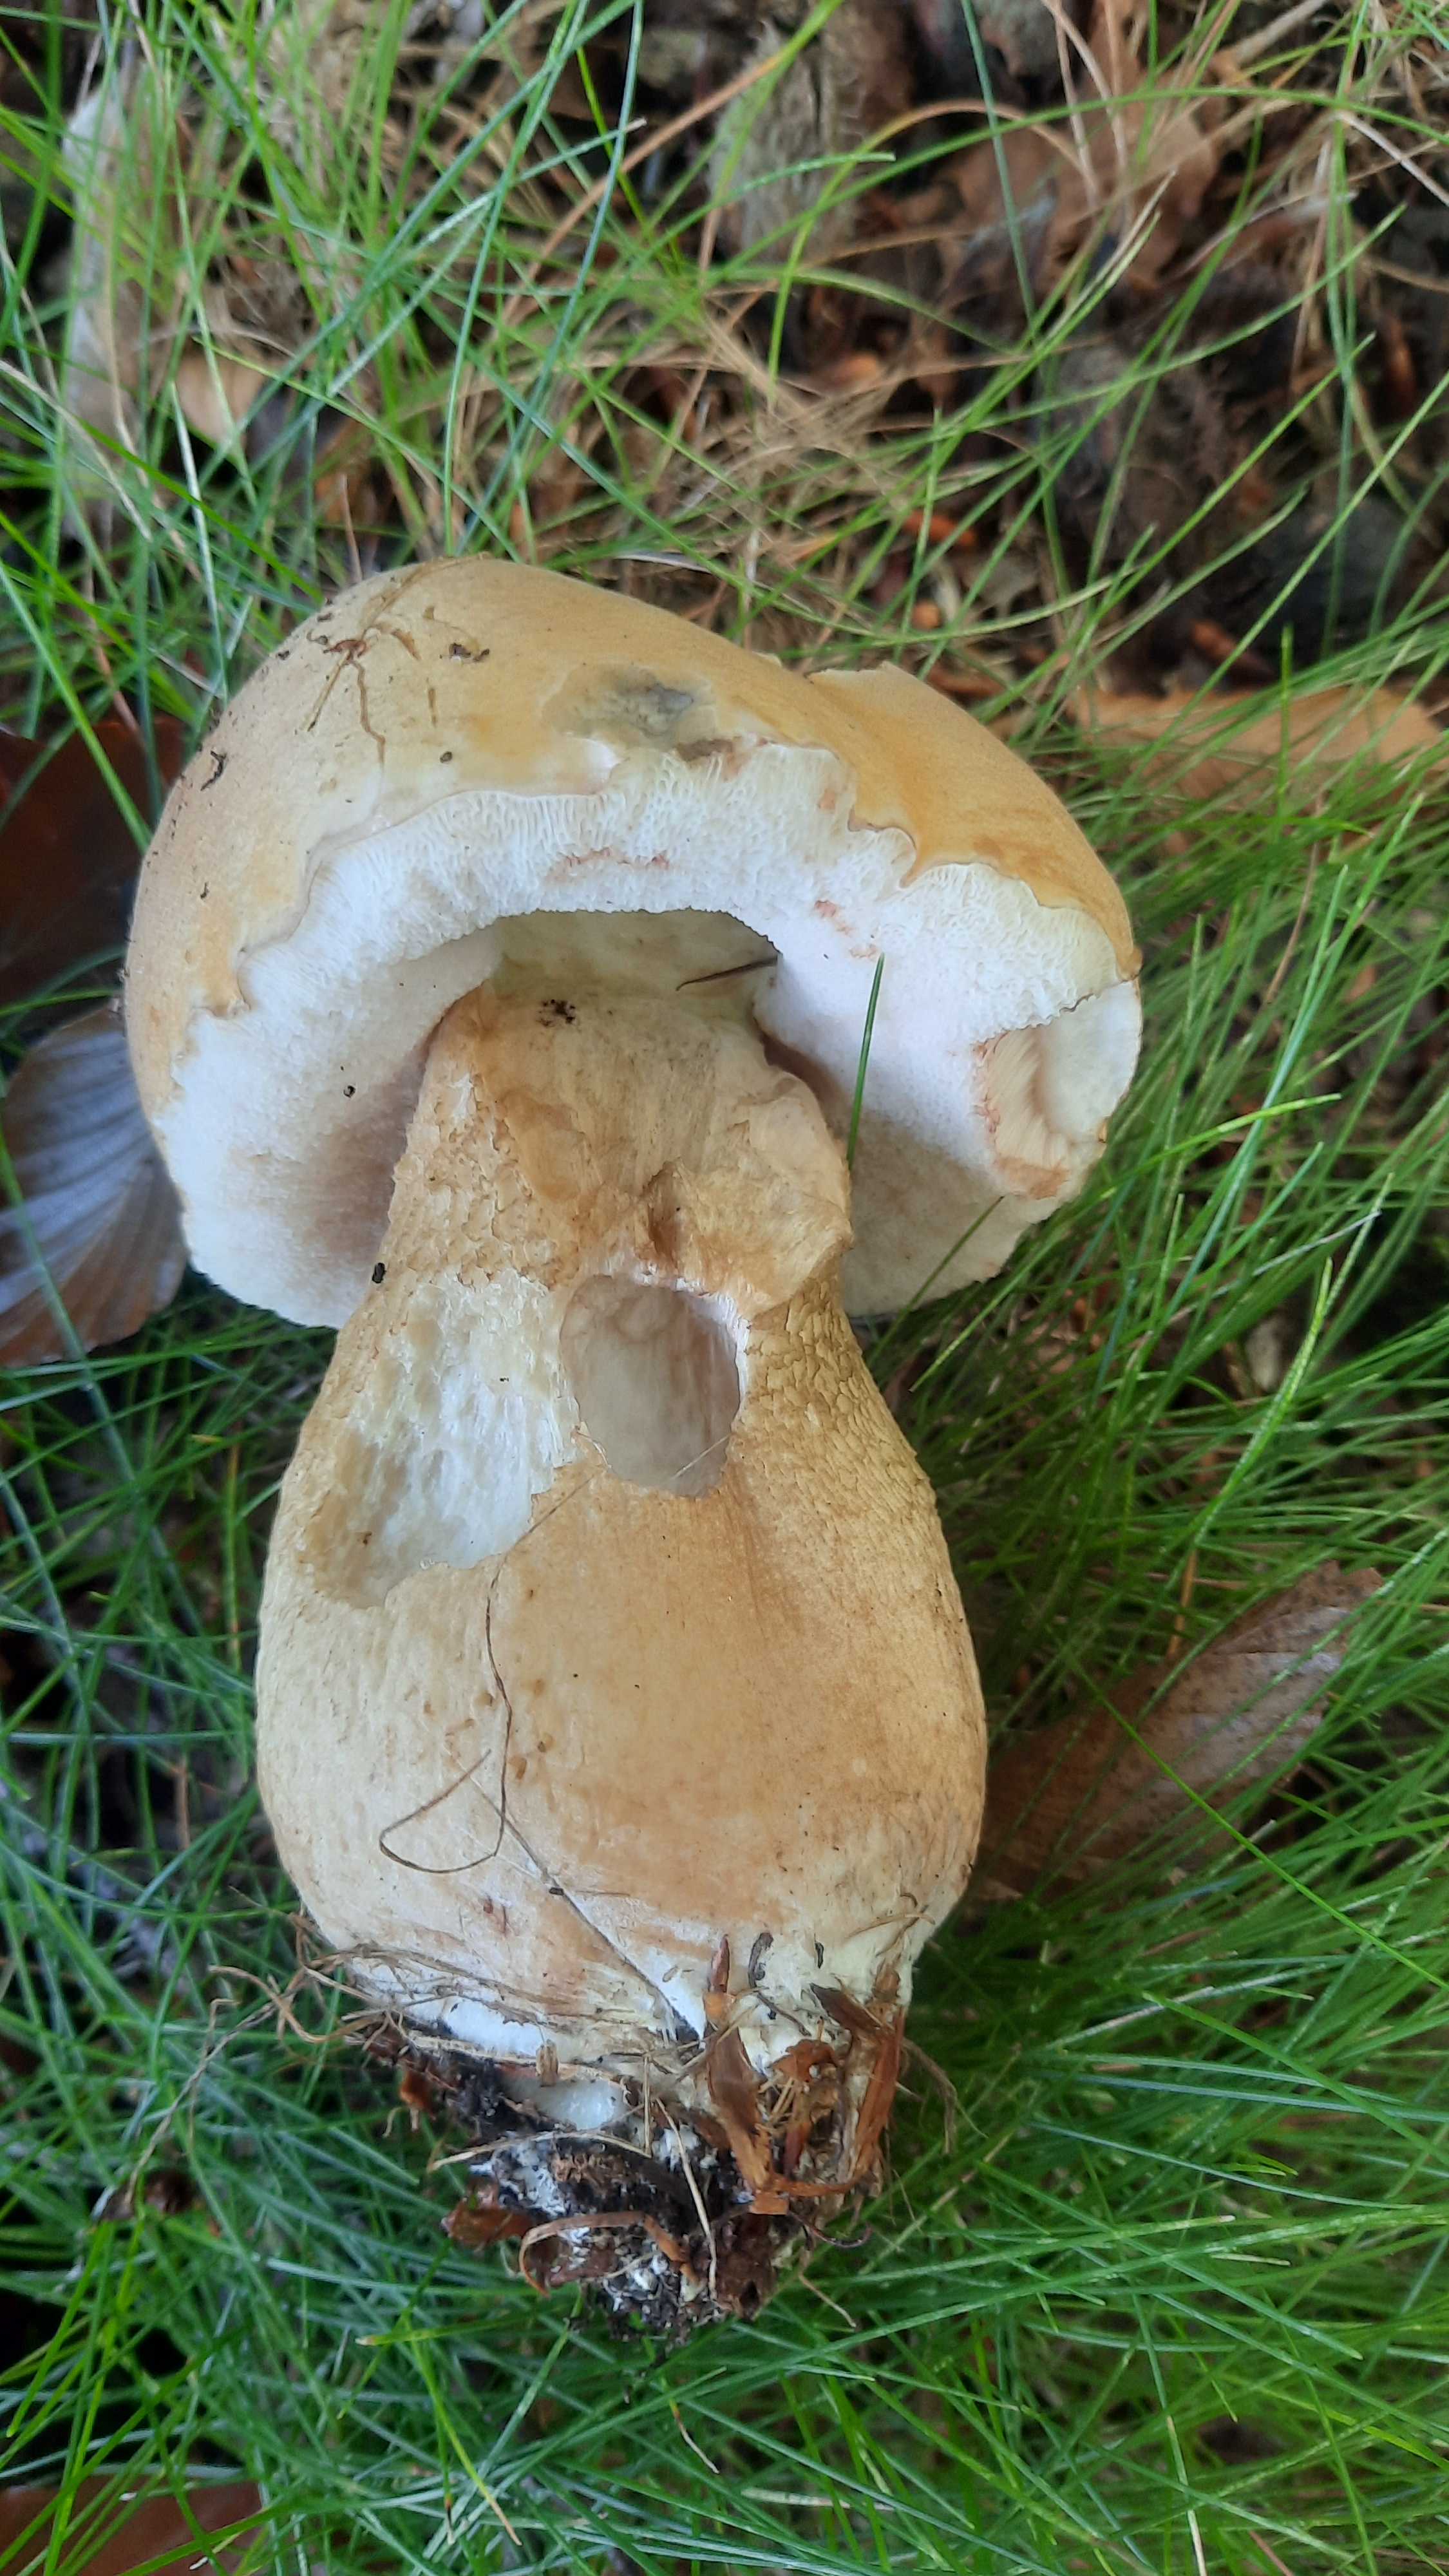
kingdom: Fungi
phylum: Basidiomycota
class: Agaricomycetes
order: Boletales
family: Boletaceae
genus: Tylopilus
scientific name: Tylopilus felleus
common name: galderørhat
